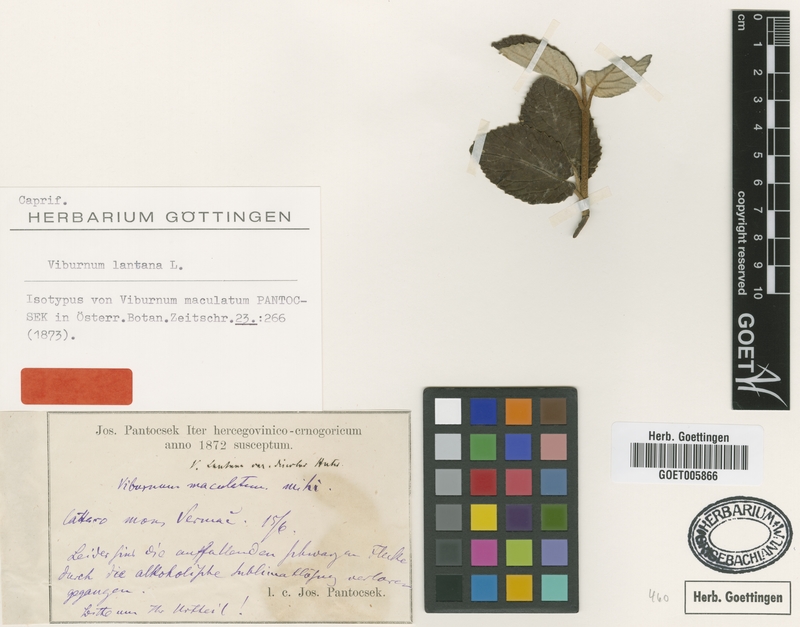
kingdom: Plantae
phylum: Tracheophyta
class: Magnoliopsida
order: Dipsacales
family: Viburnaceae
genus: Viburnum
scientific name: Viburnum lantana
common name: Wayfaring tree
